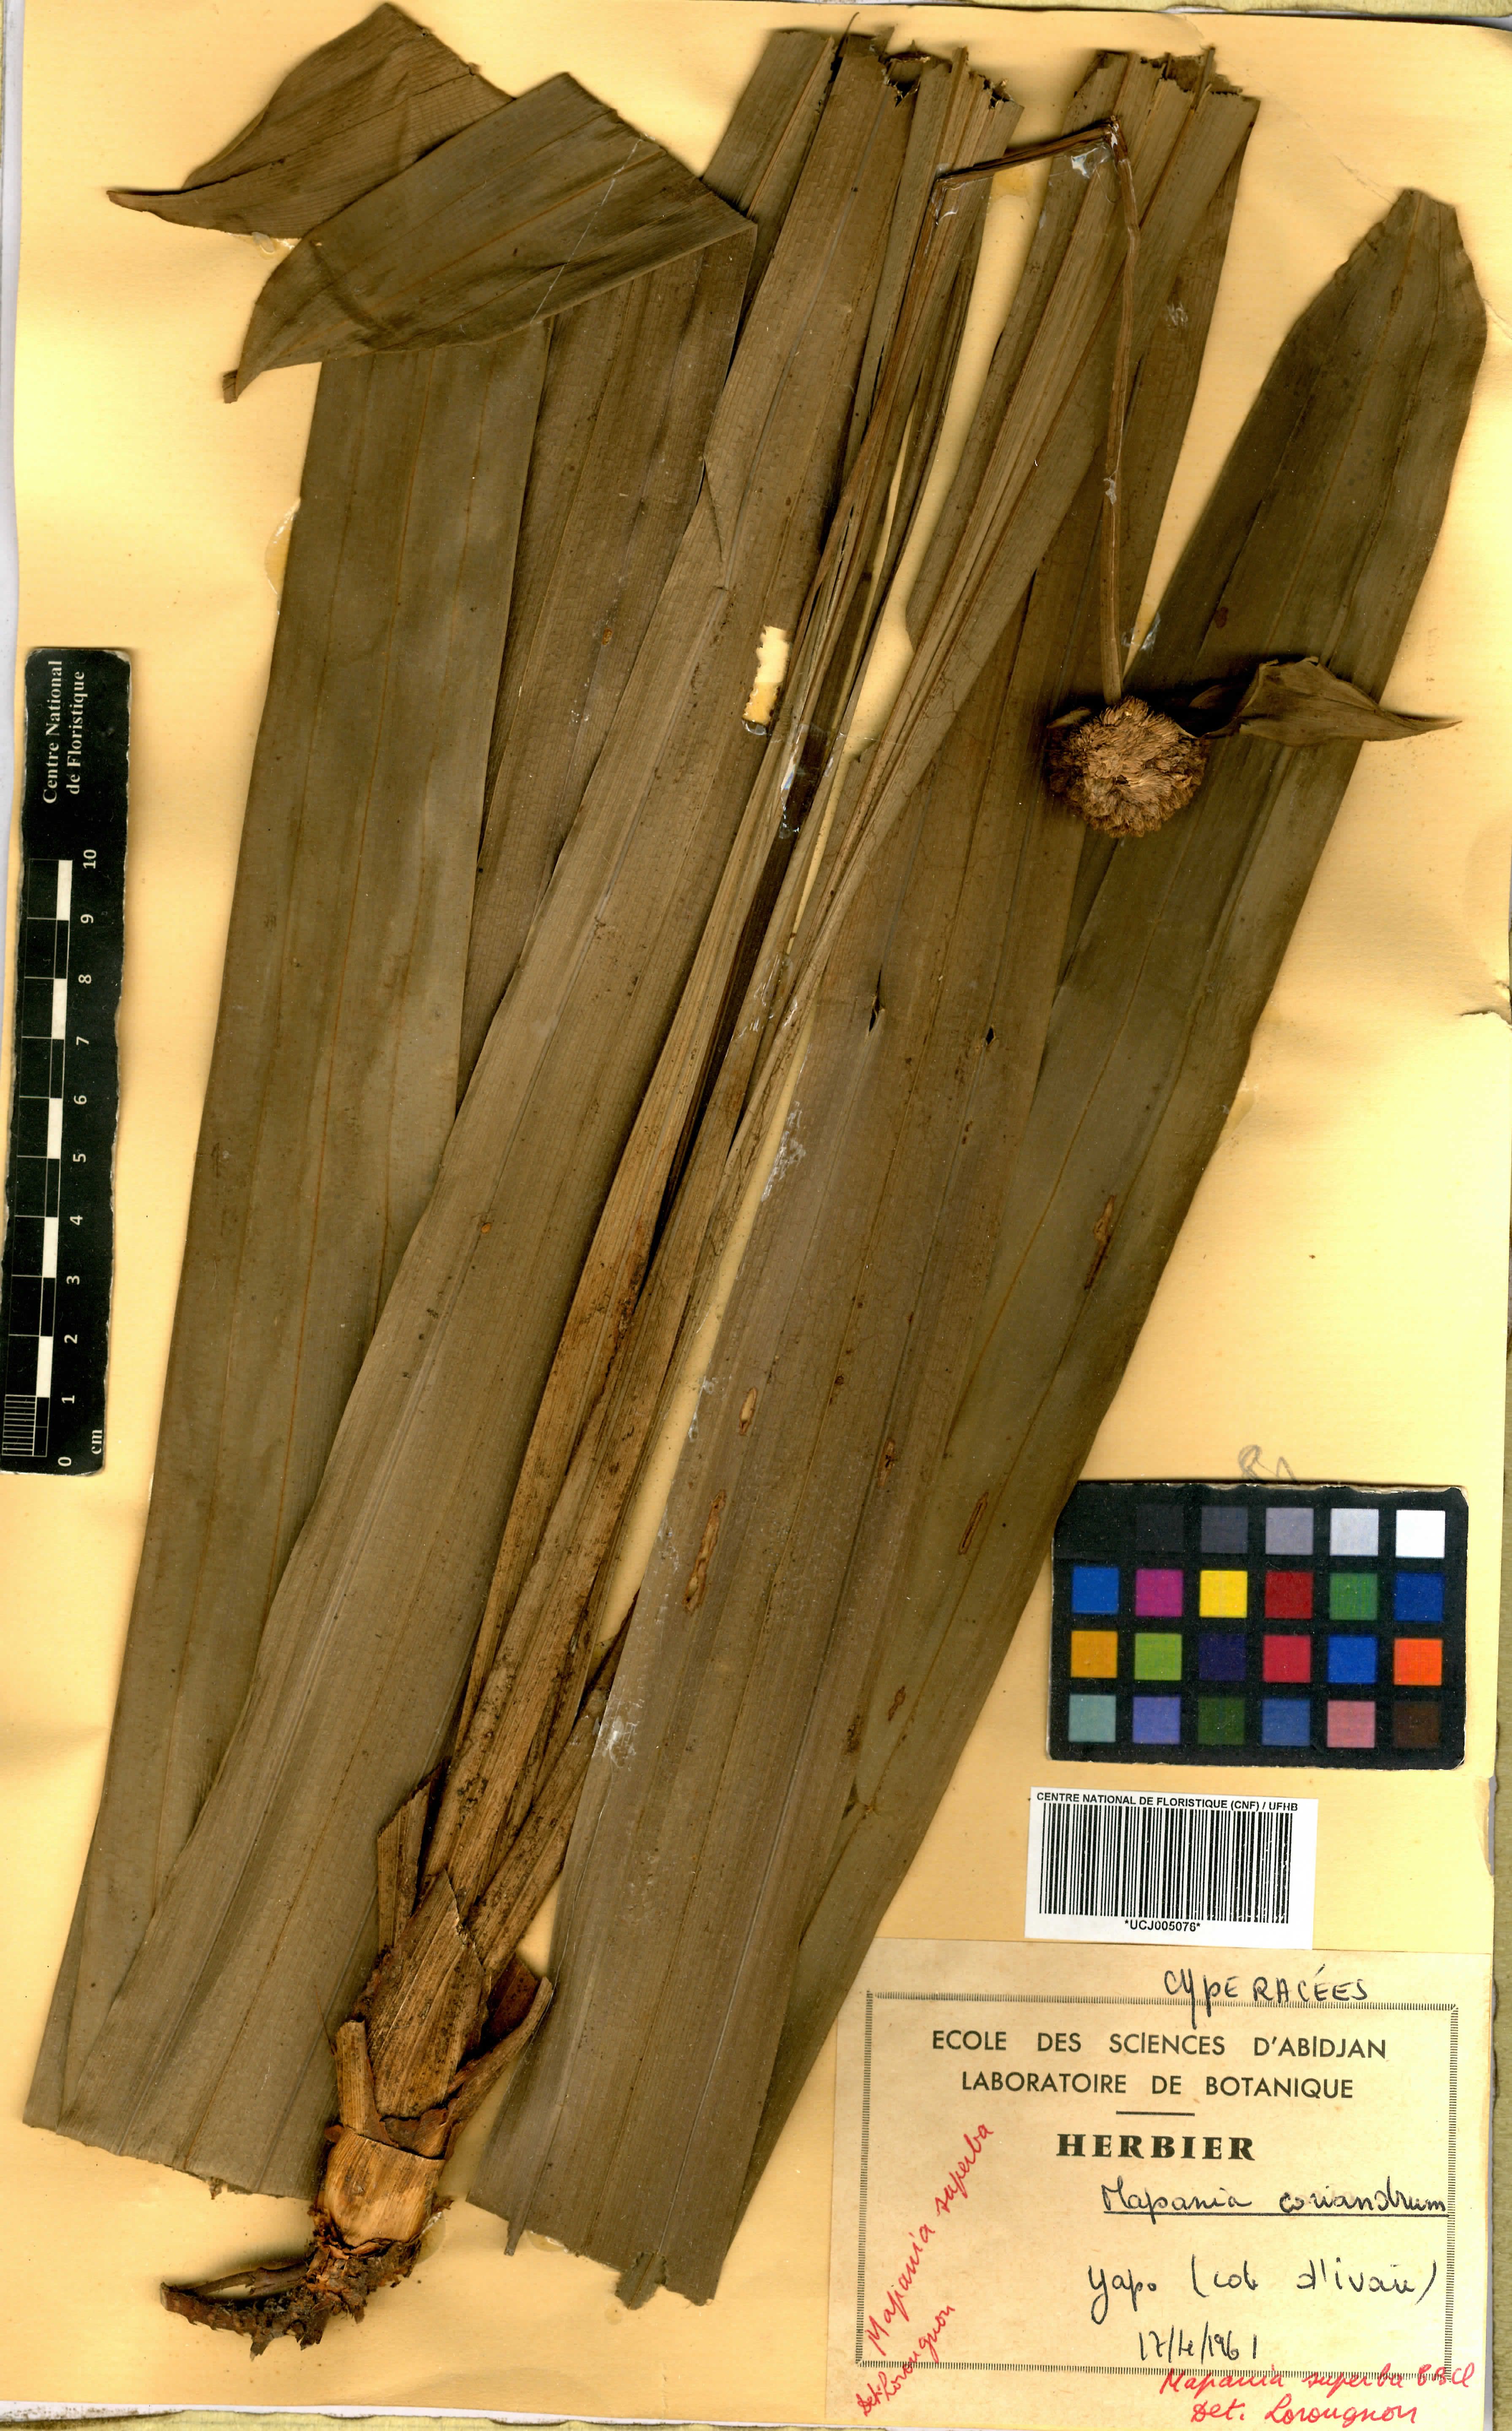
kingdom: Plantae
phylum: Tracheophyta
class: Liliopsida
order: Poales
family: Cyperaceae
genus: Mapania
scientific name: Mapania macrantha
